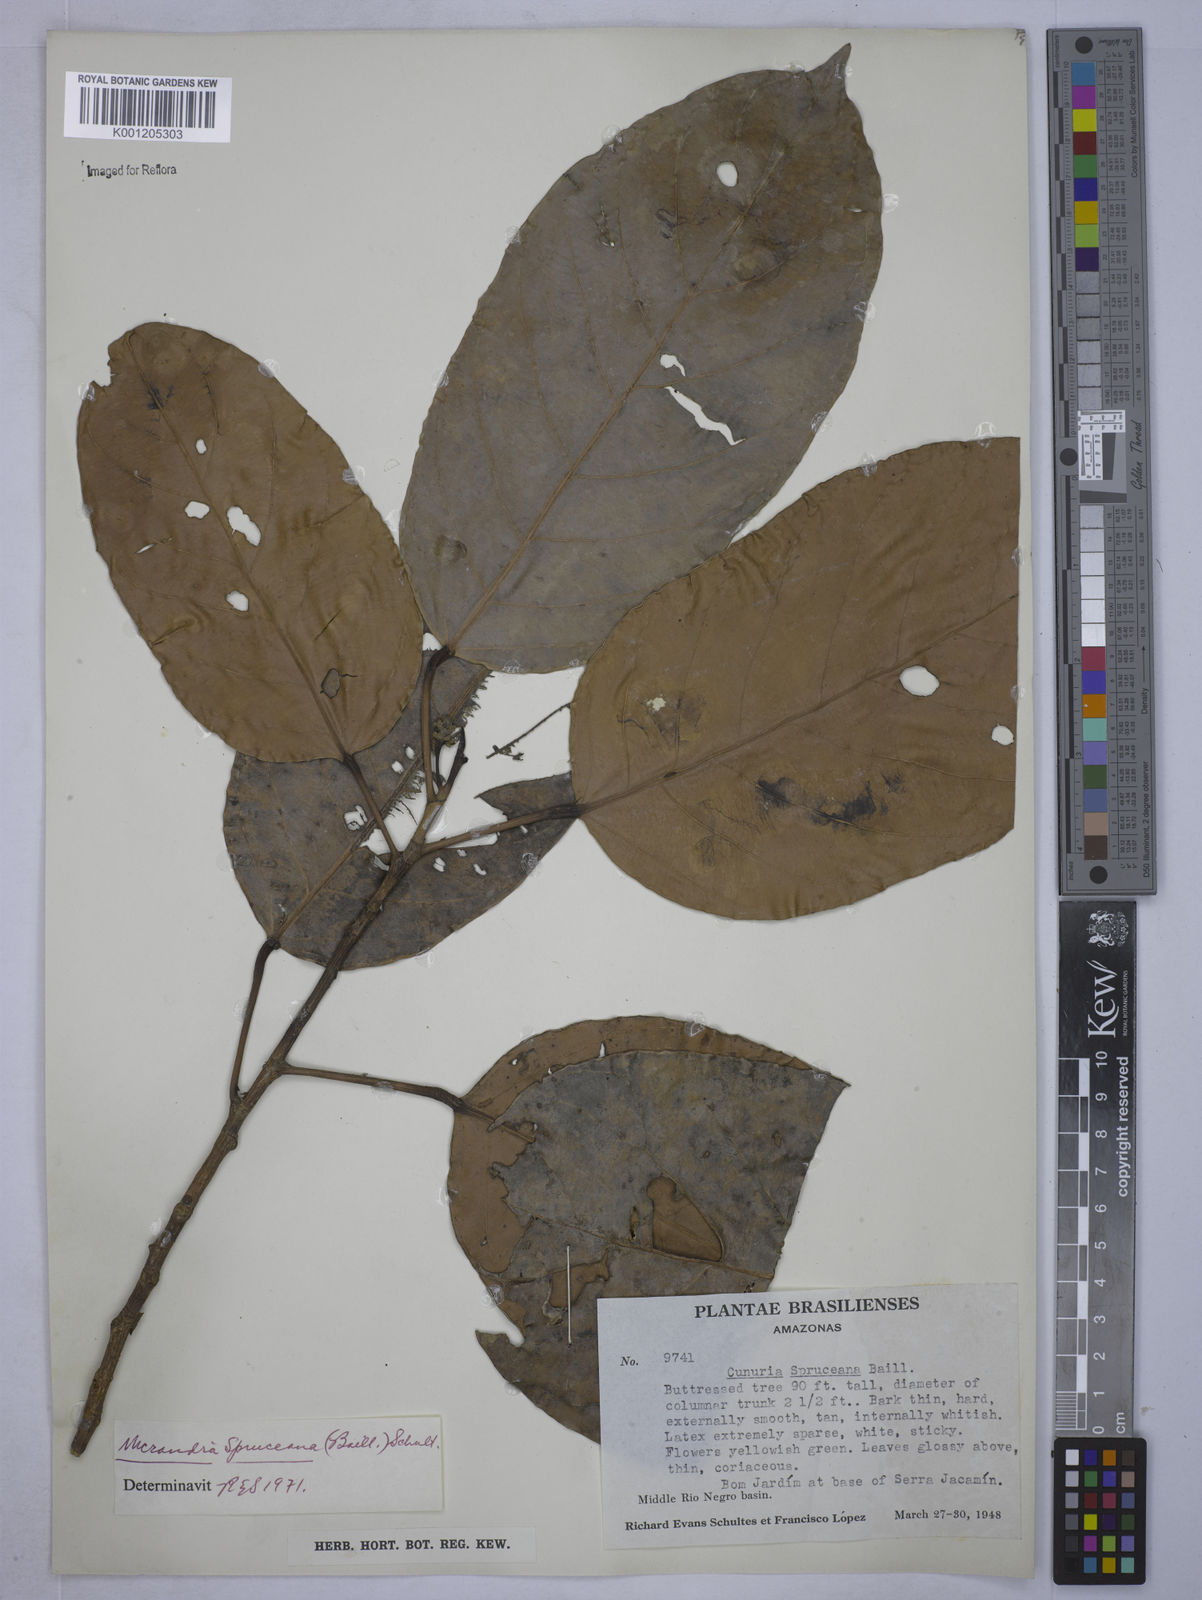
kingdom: Plantae
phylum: Tracheophyta
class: Magnoliopsida
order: Malpighiales
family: Euphorbiaceae
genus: Micrandra
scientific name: Micrandra spruceana
